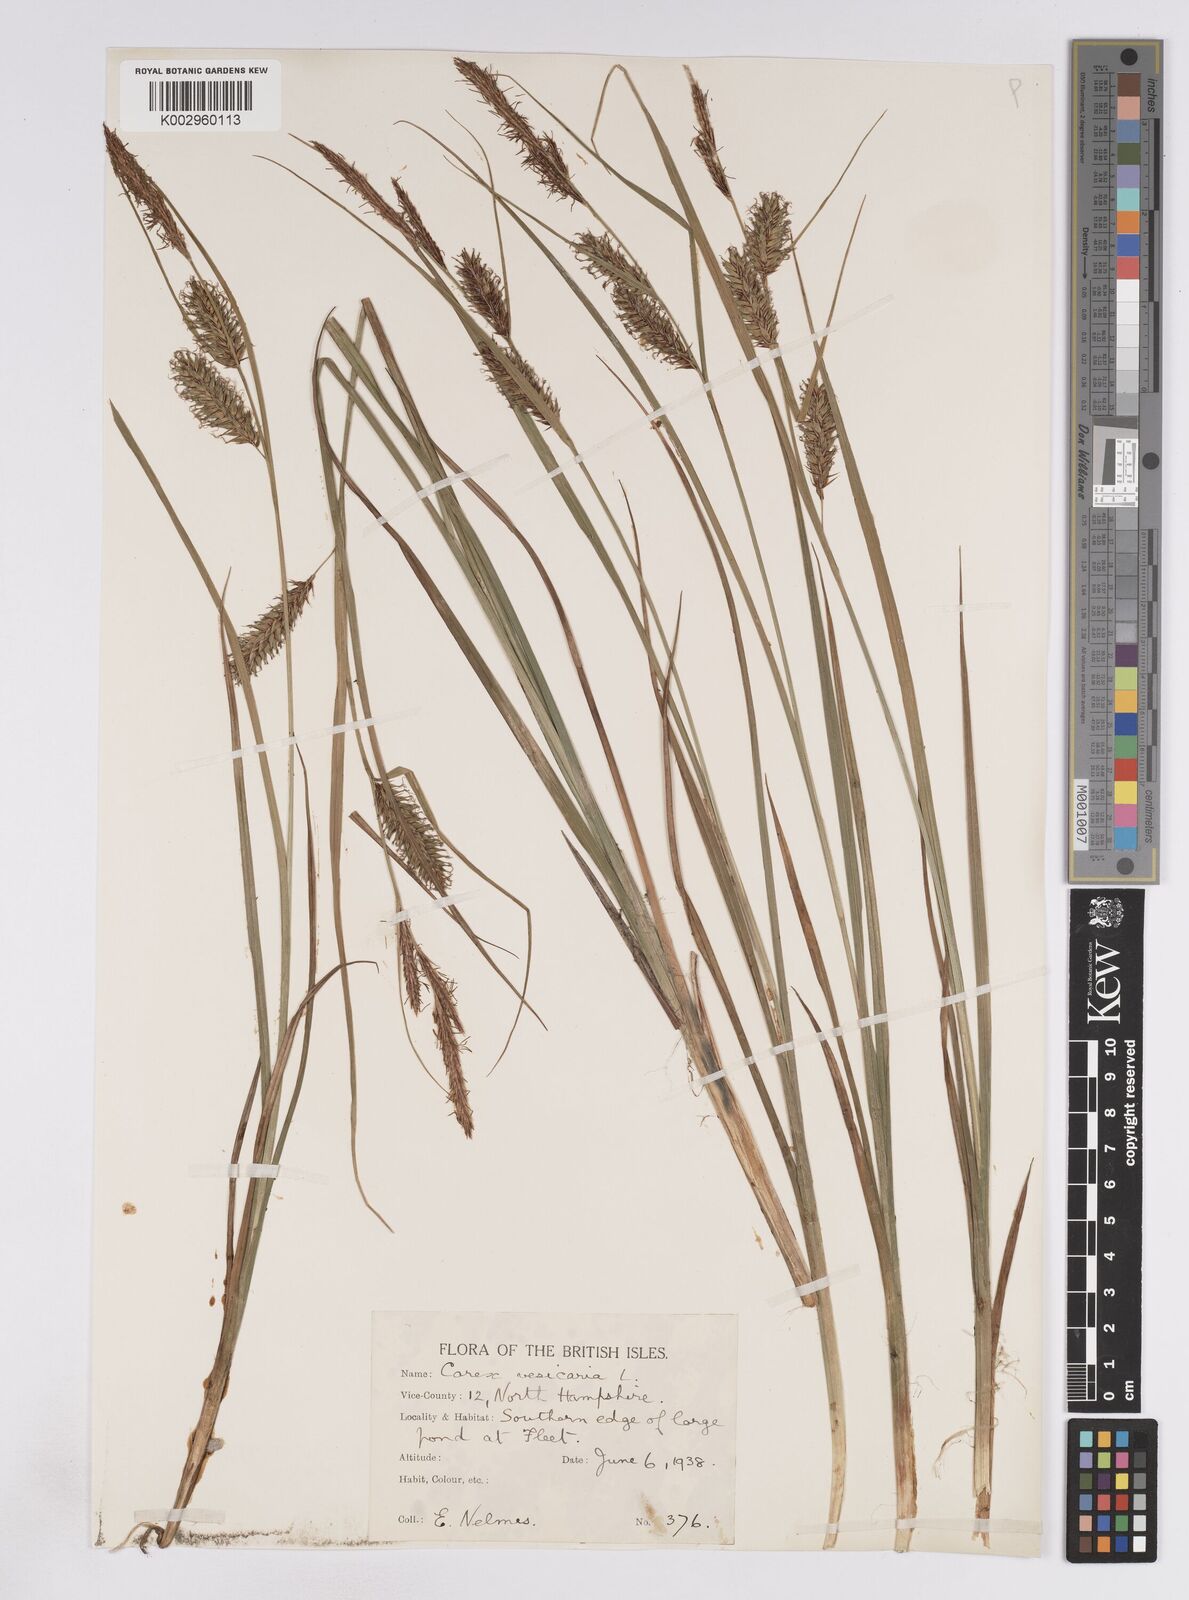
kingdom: Plantae
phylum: Tracheophyta
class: Liliopsida
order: Poales
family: Cyperaceae
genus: Carex
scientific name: Carex vesicaria
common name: Bladder-sedge
